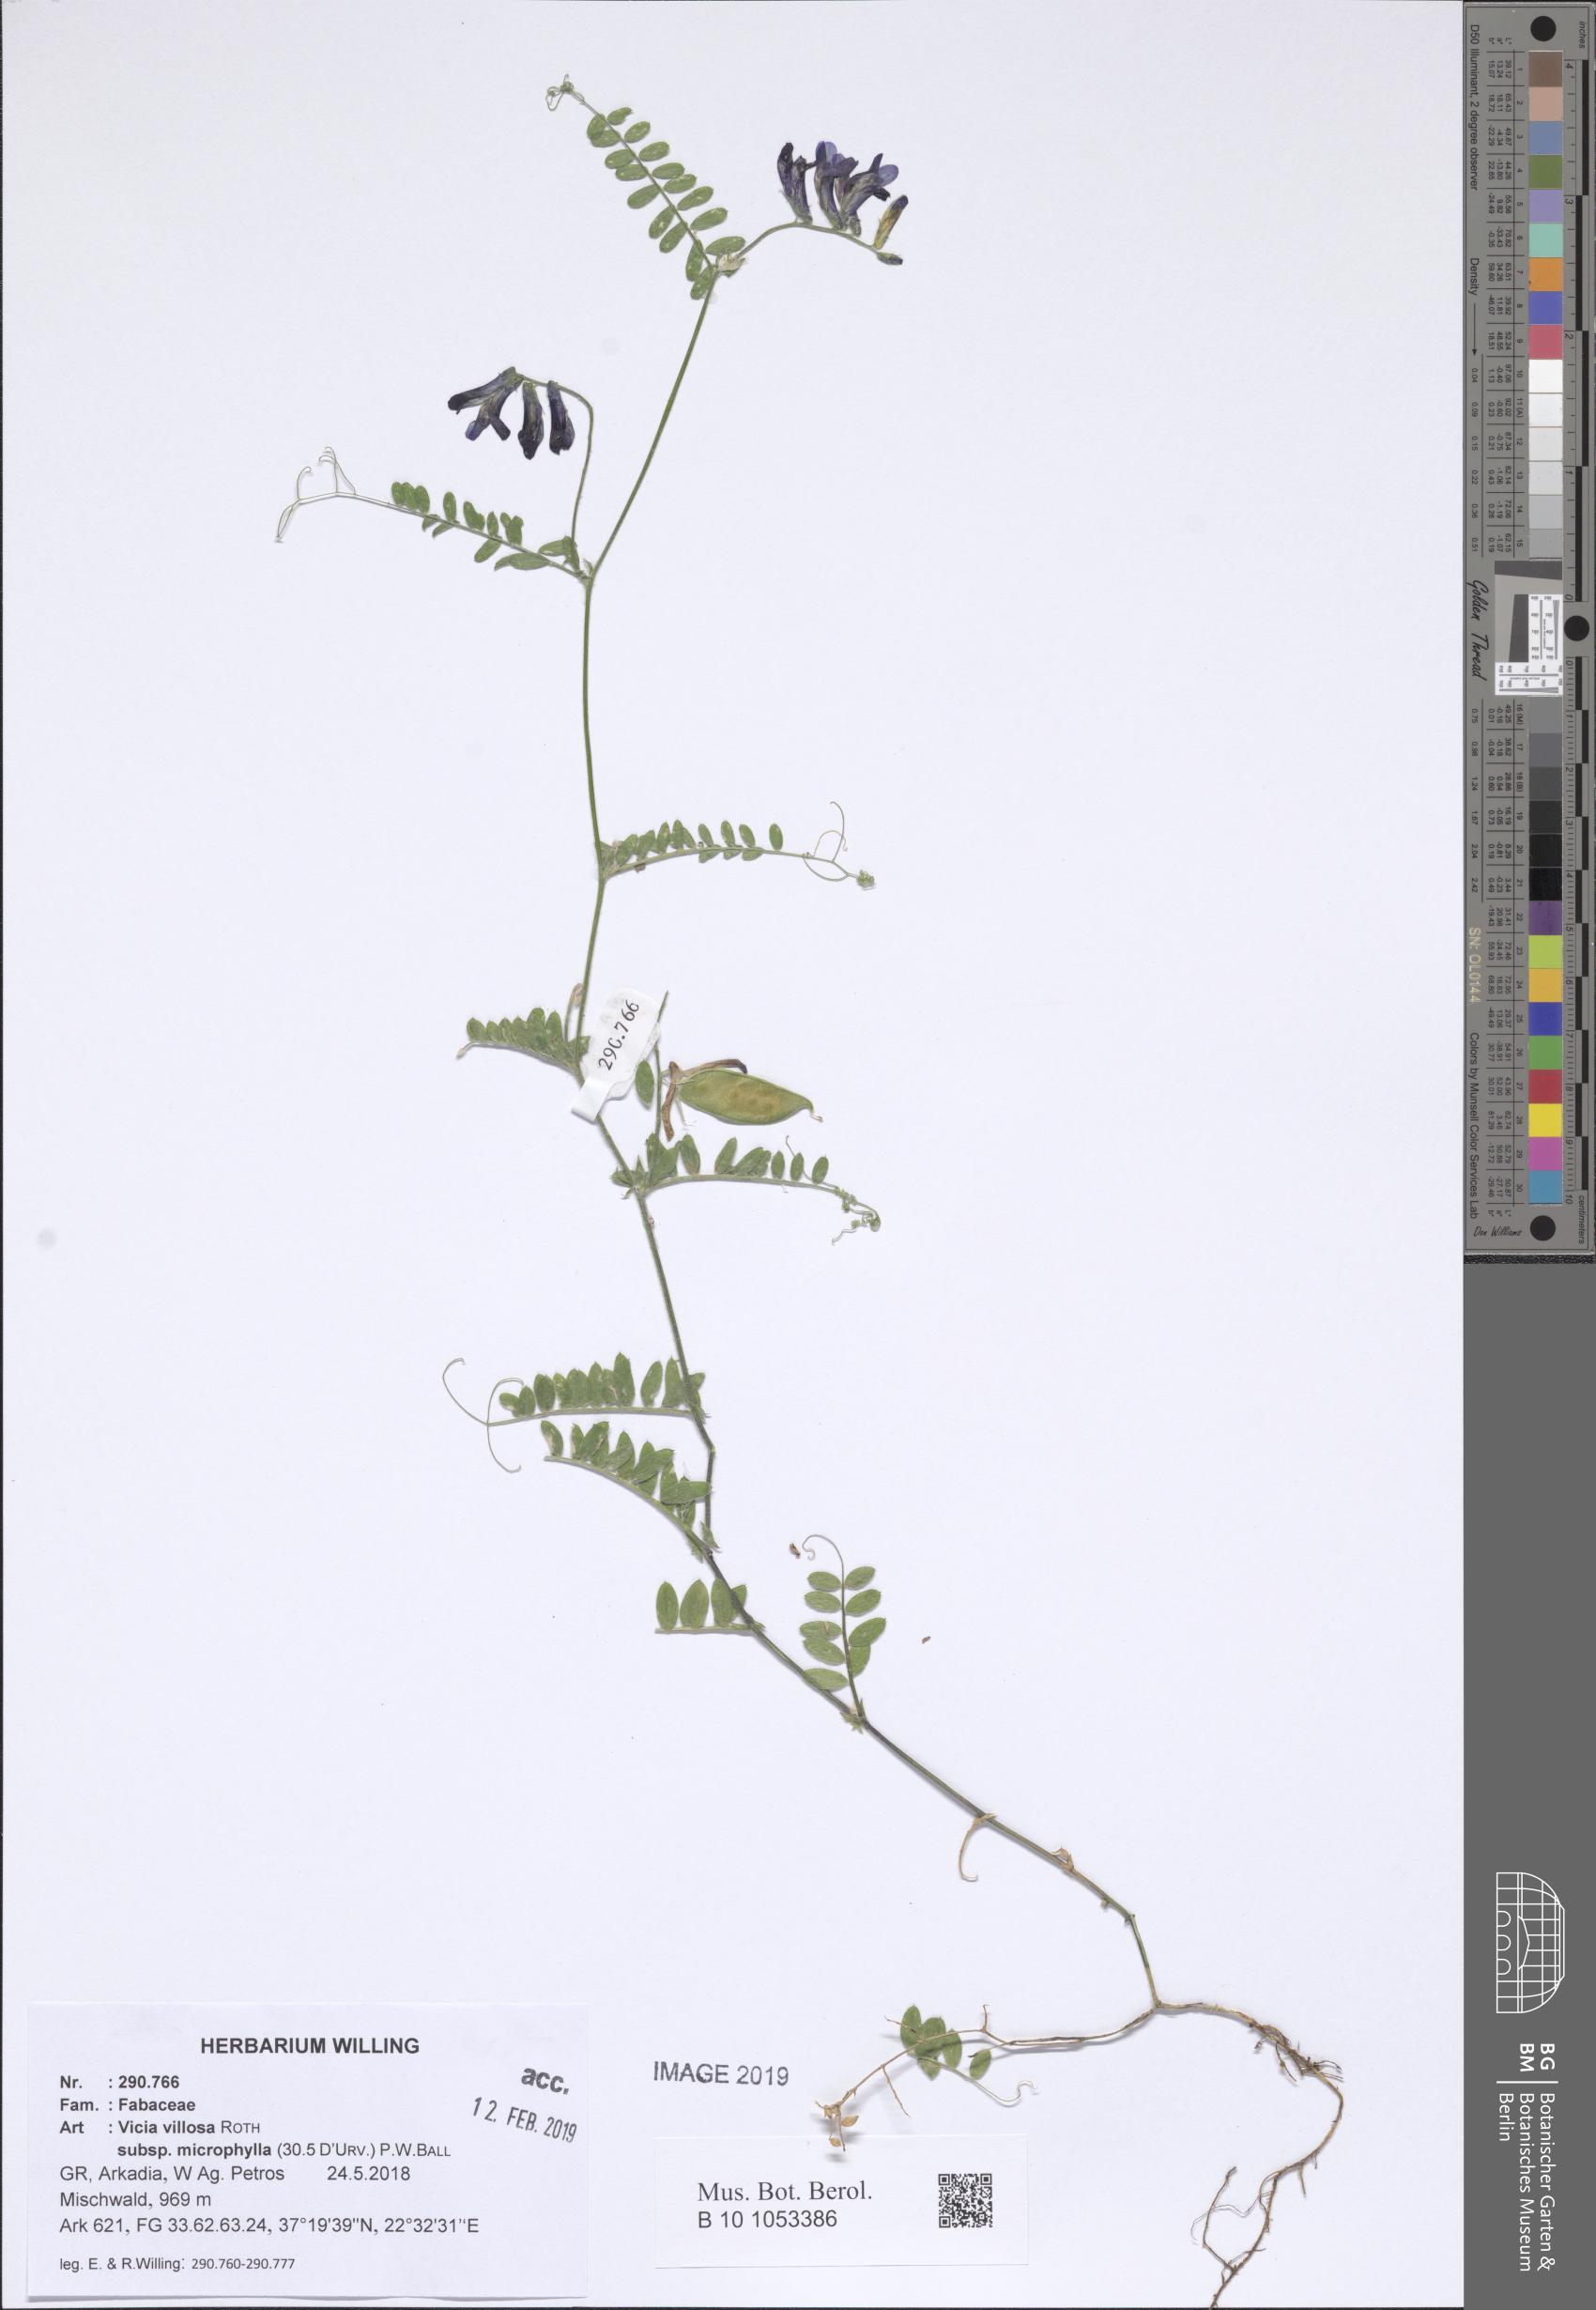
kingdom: Plantae
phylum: Tracheophyta
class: Magnoliopsida
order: Fabales
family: Fabaceae
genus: Vicia
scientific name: Vicia villosa
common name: Fodder vetch
